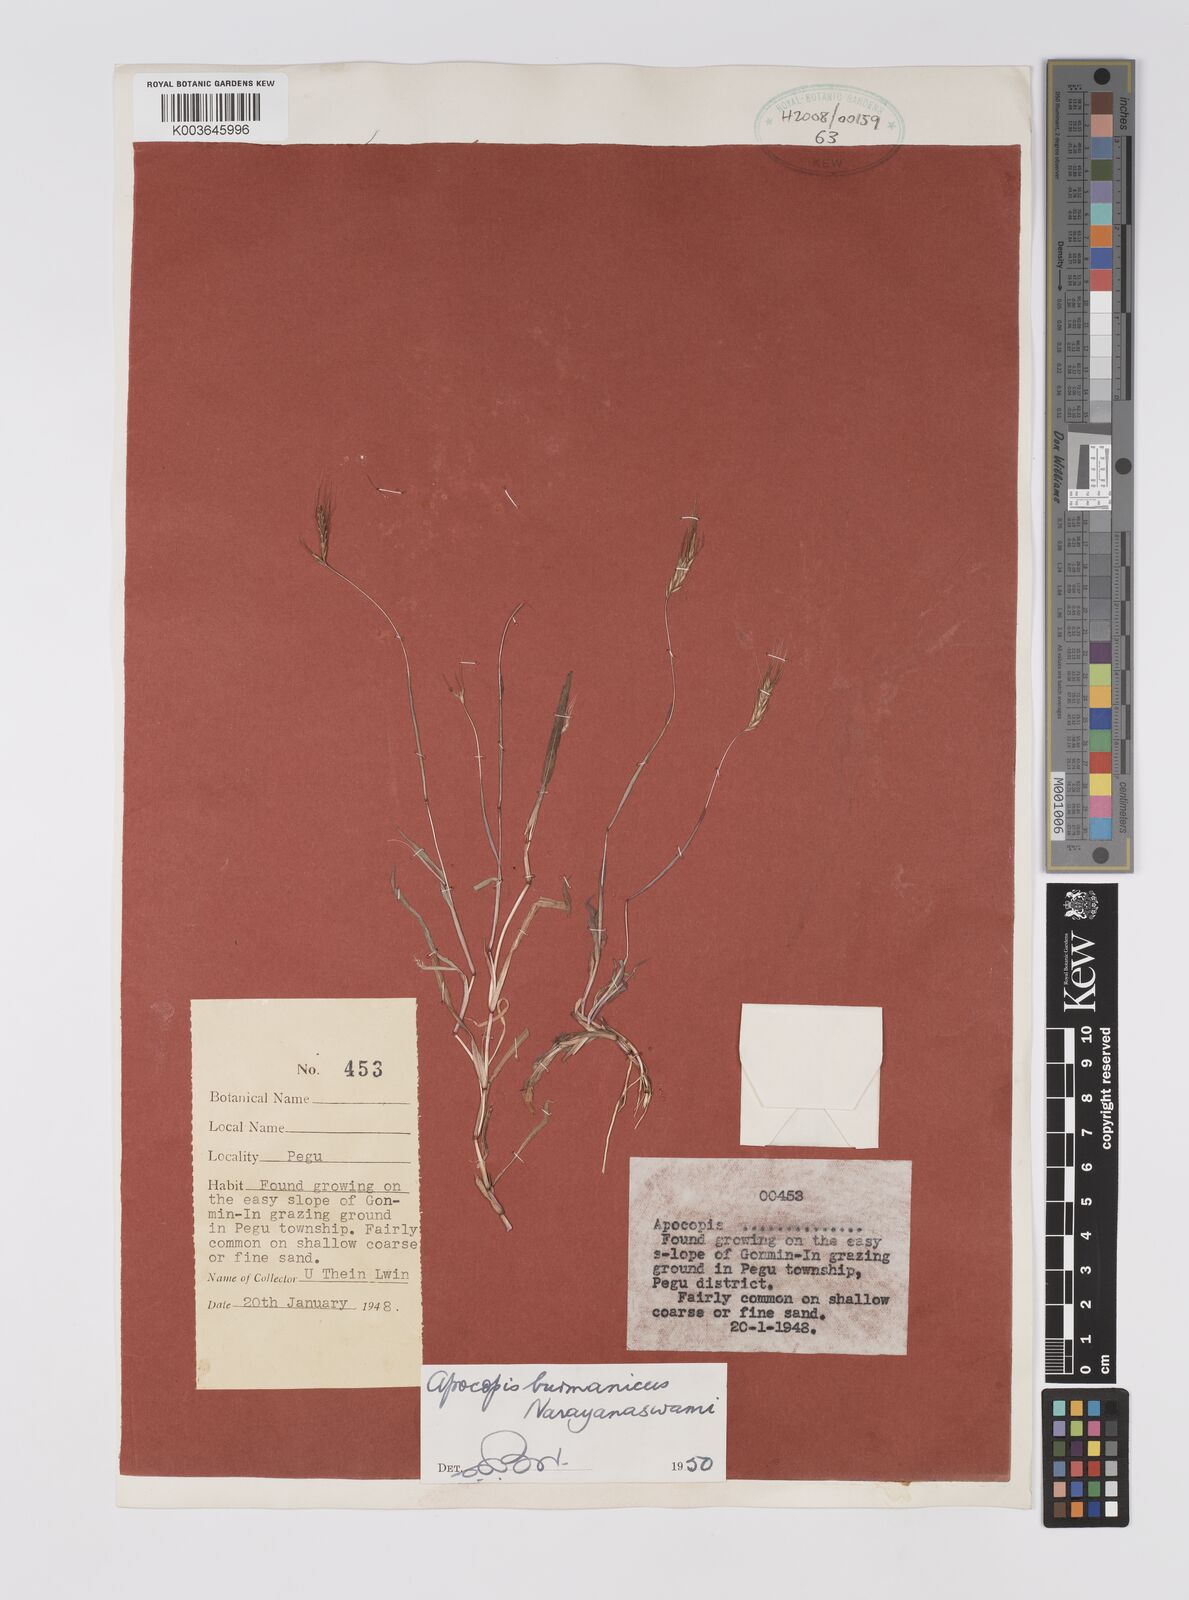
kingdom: Plantae
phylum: Tracheophyta
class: Liliopsida
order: Poales
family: Poaceae
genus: Apocopis
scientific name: Apocopis burmanicus
